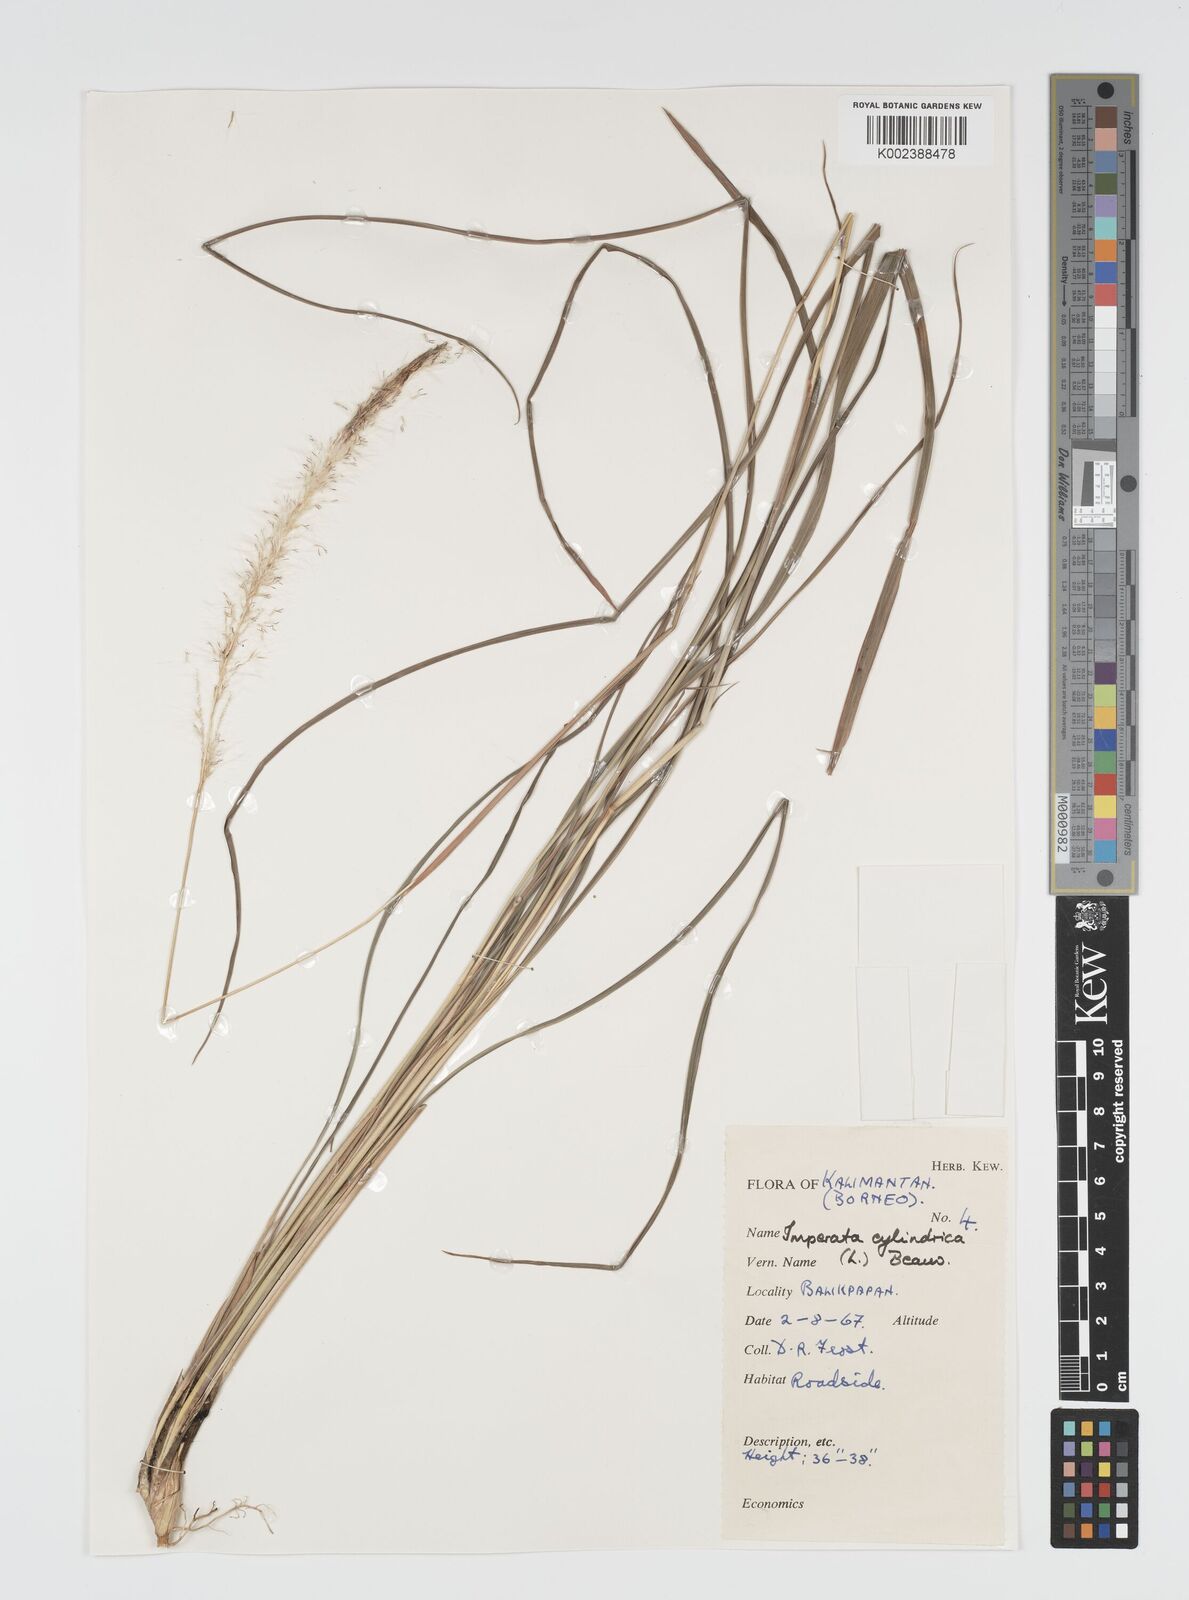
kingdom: Plantae
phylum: Tracheophyta
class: Liliopsida
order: Poales
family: Poaceae
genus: Imperata
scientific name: Imperata cylindrica
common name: Cogongrass
